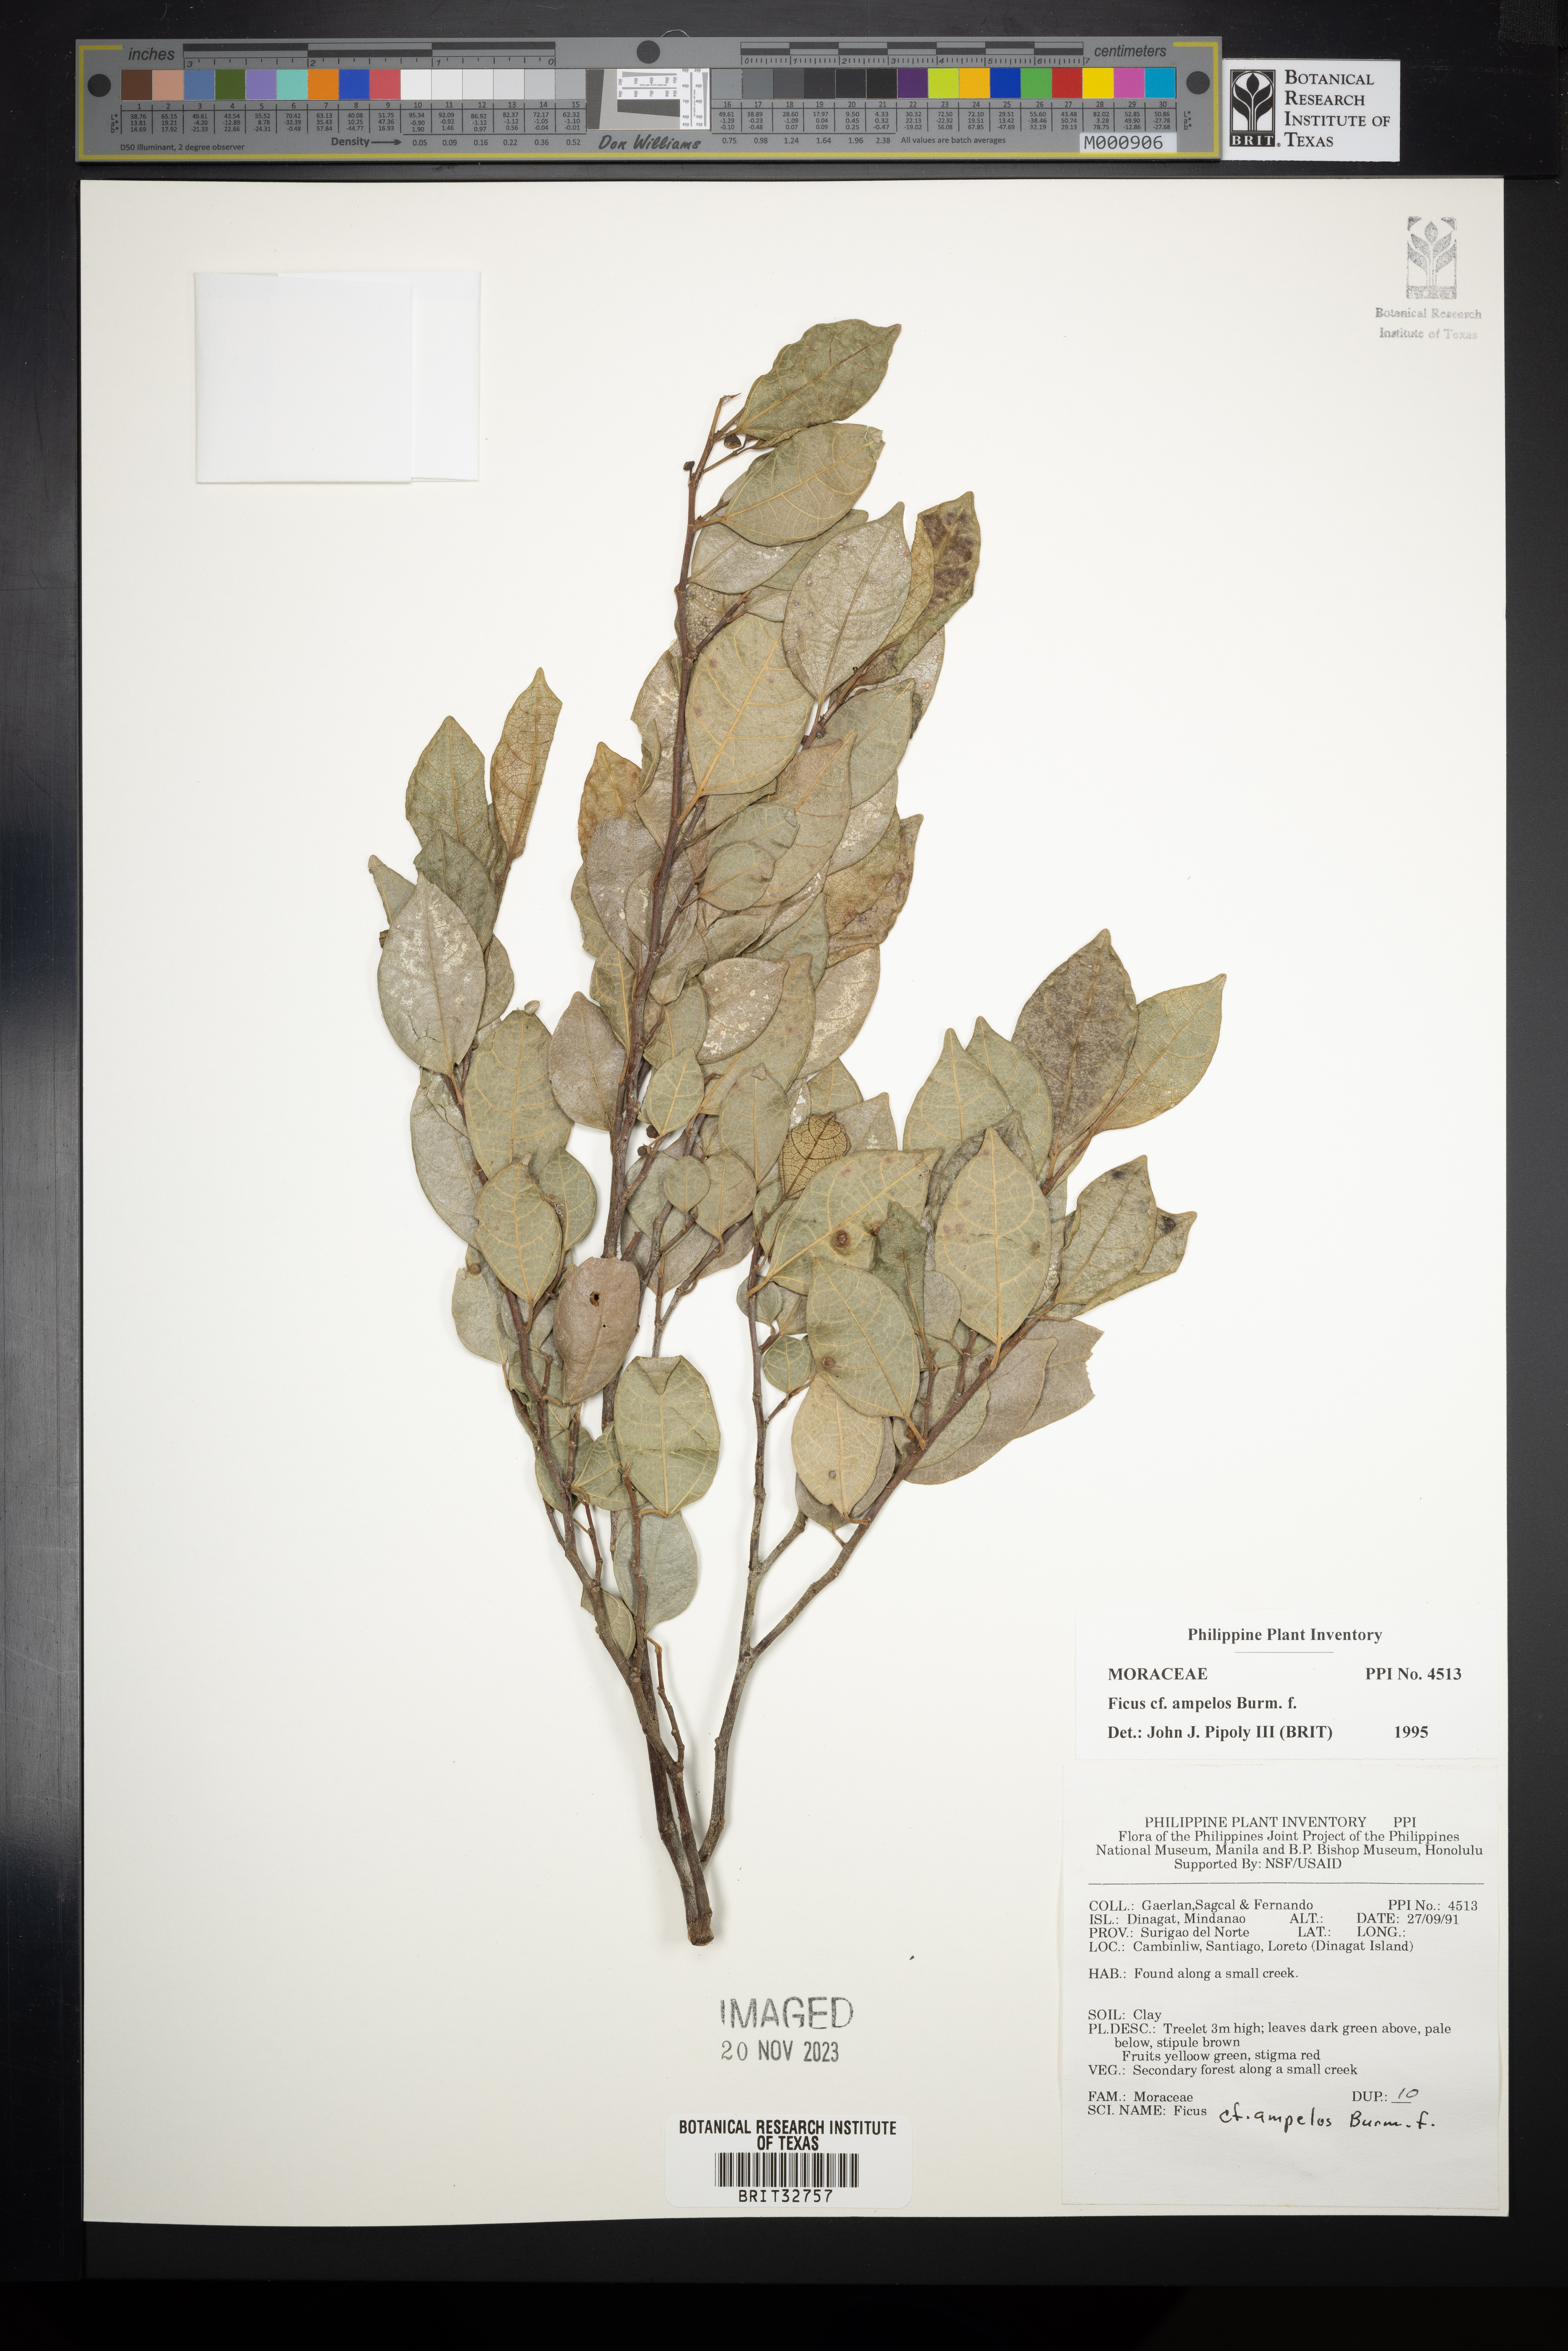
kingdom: Plantae
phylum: Tracheophyta
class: Magnoliopsida
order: Rosales
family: Moraceae
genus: Ficus
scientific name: Ficus ampelos
